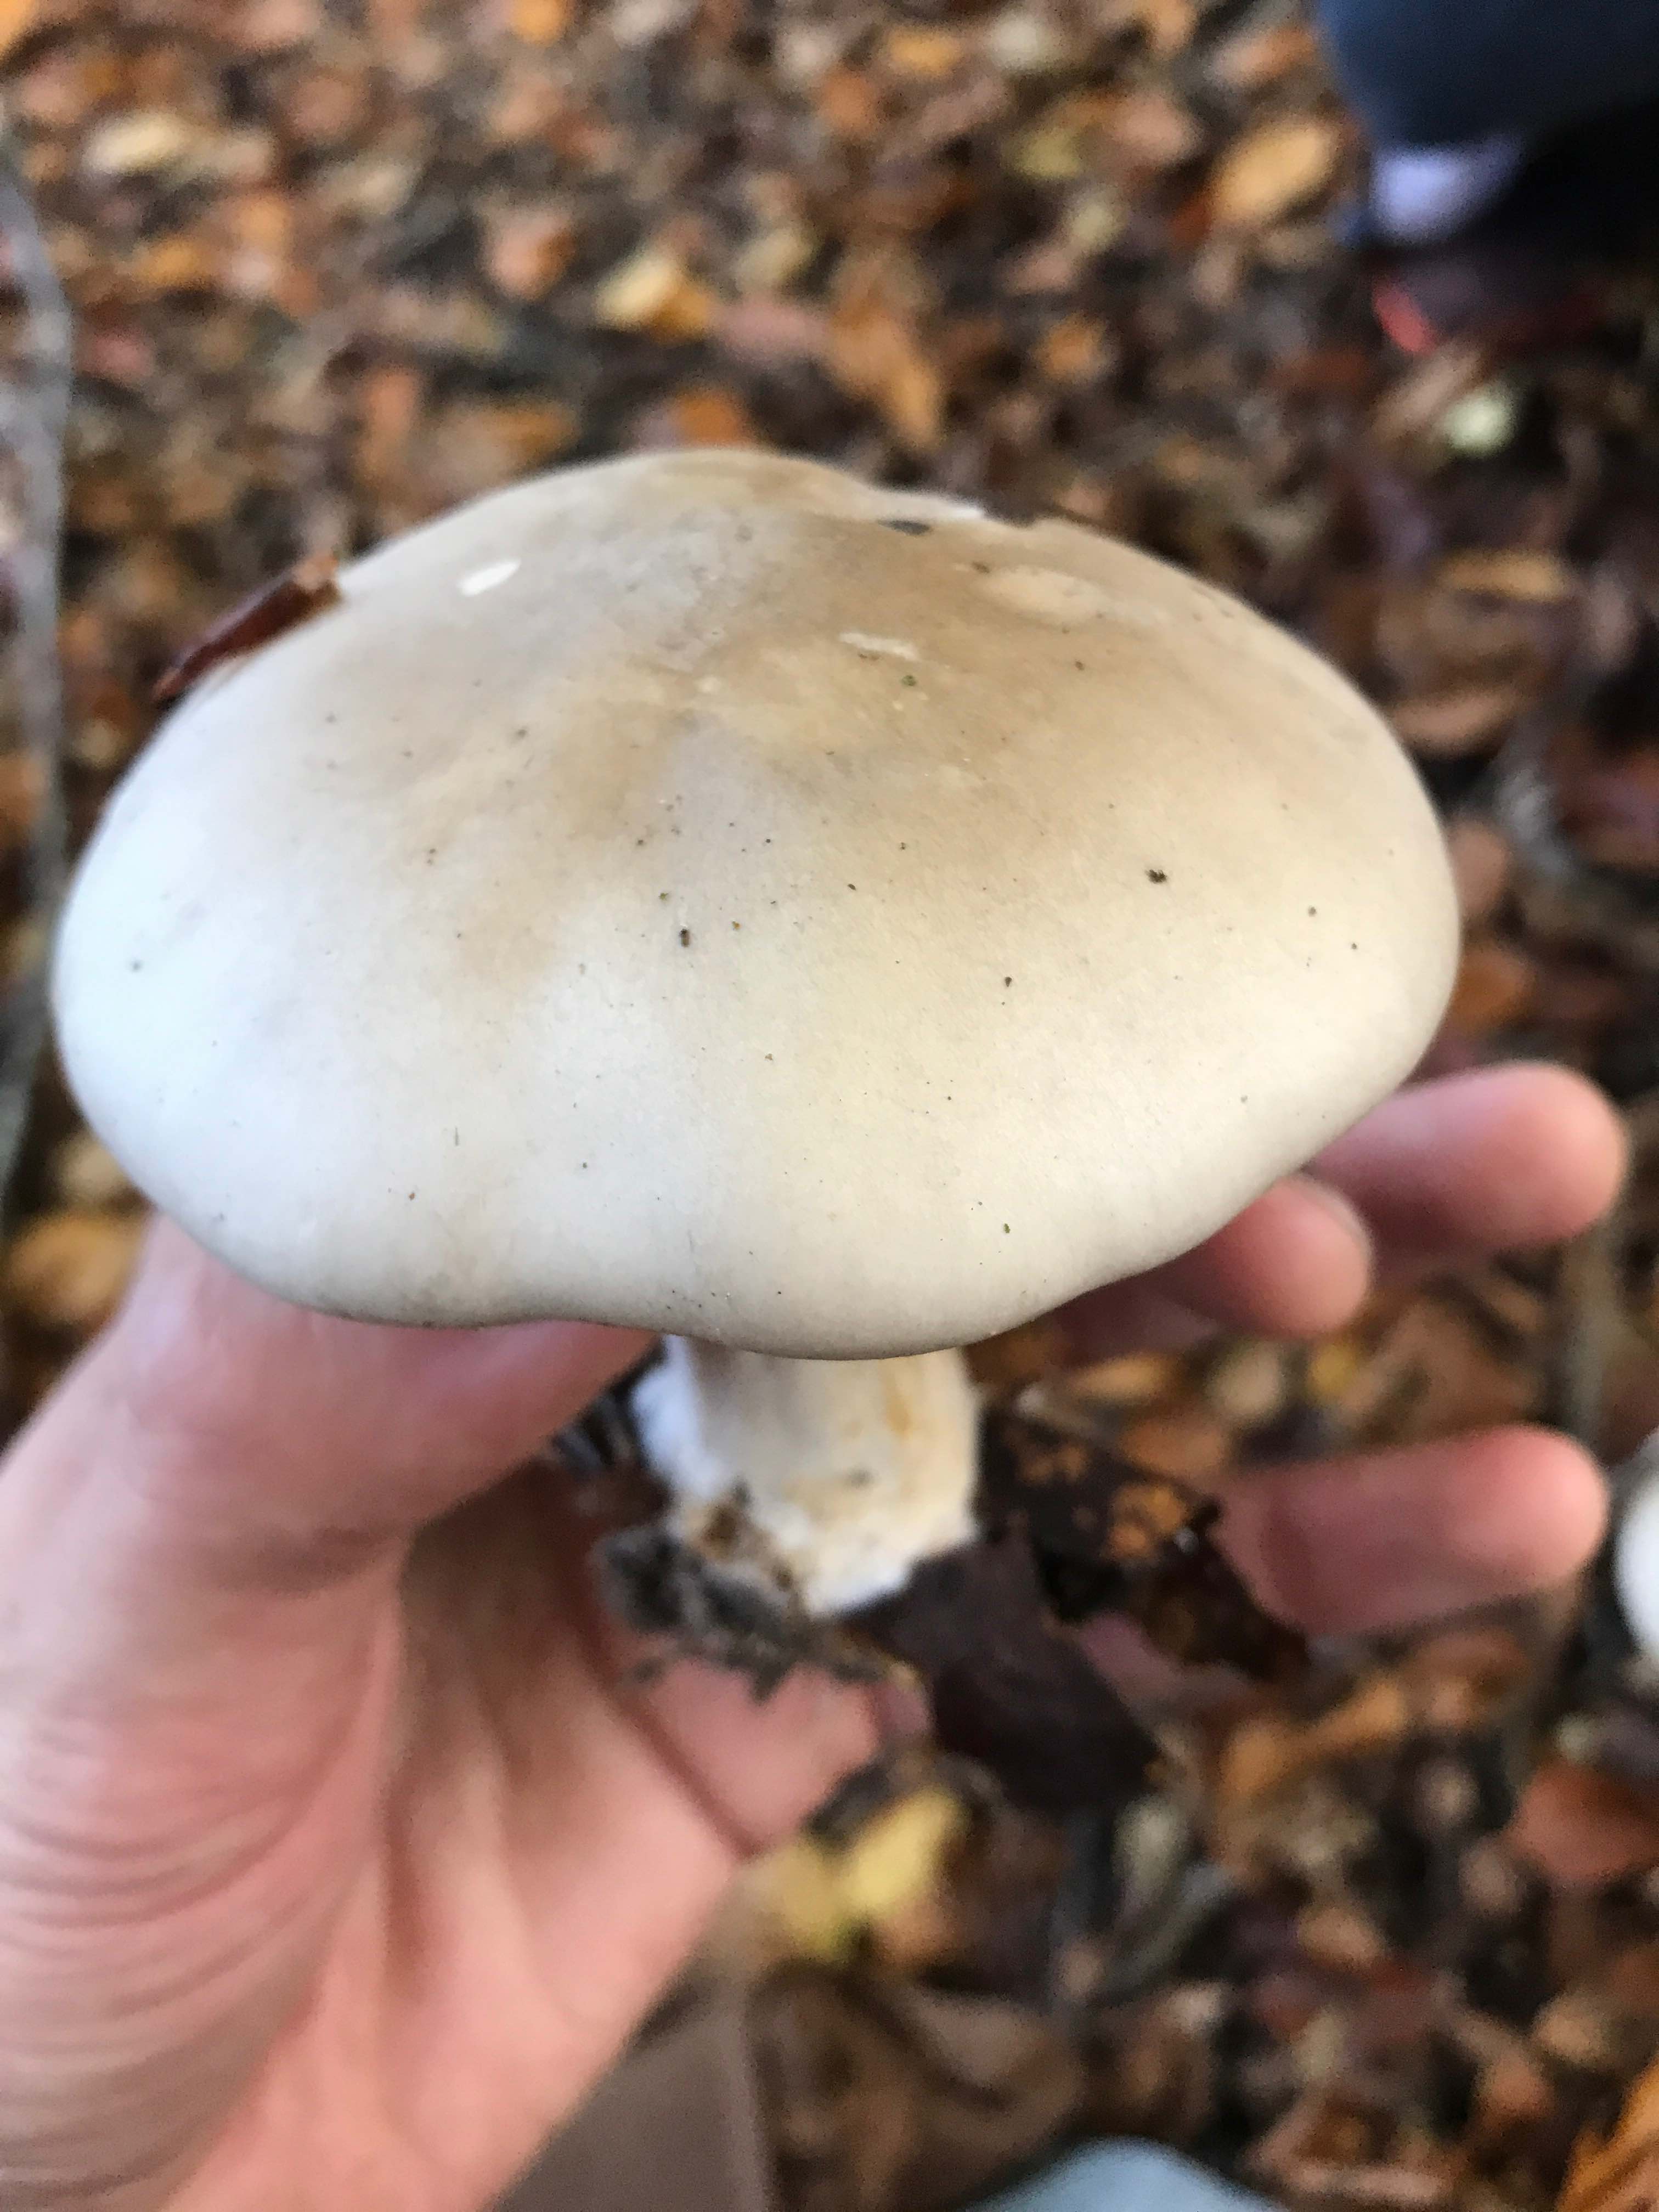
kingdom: Fungi
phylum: Basidiomycota
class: Agaricomycetes
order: Agaricales
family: Tricholomataceae
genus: Clitocybe
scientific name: Clitocybe nebularis
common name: tåge-tragthat
